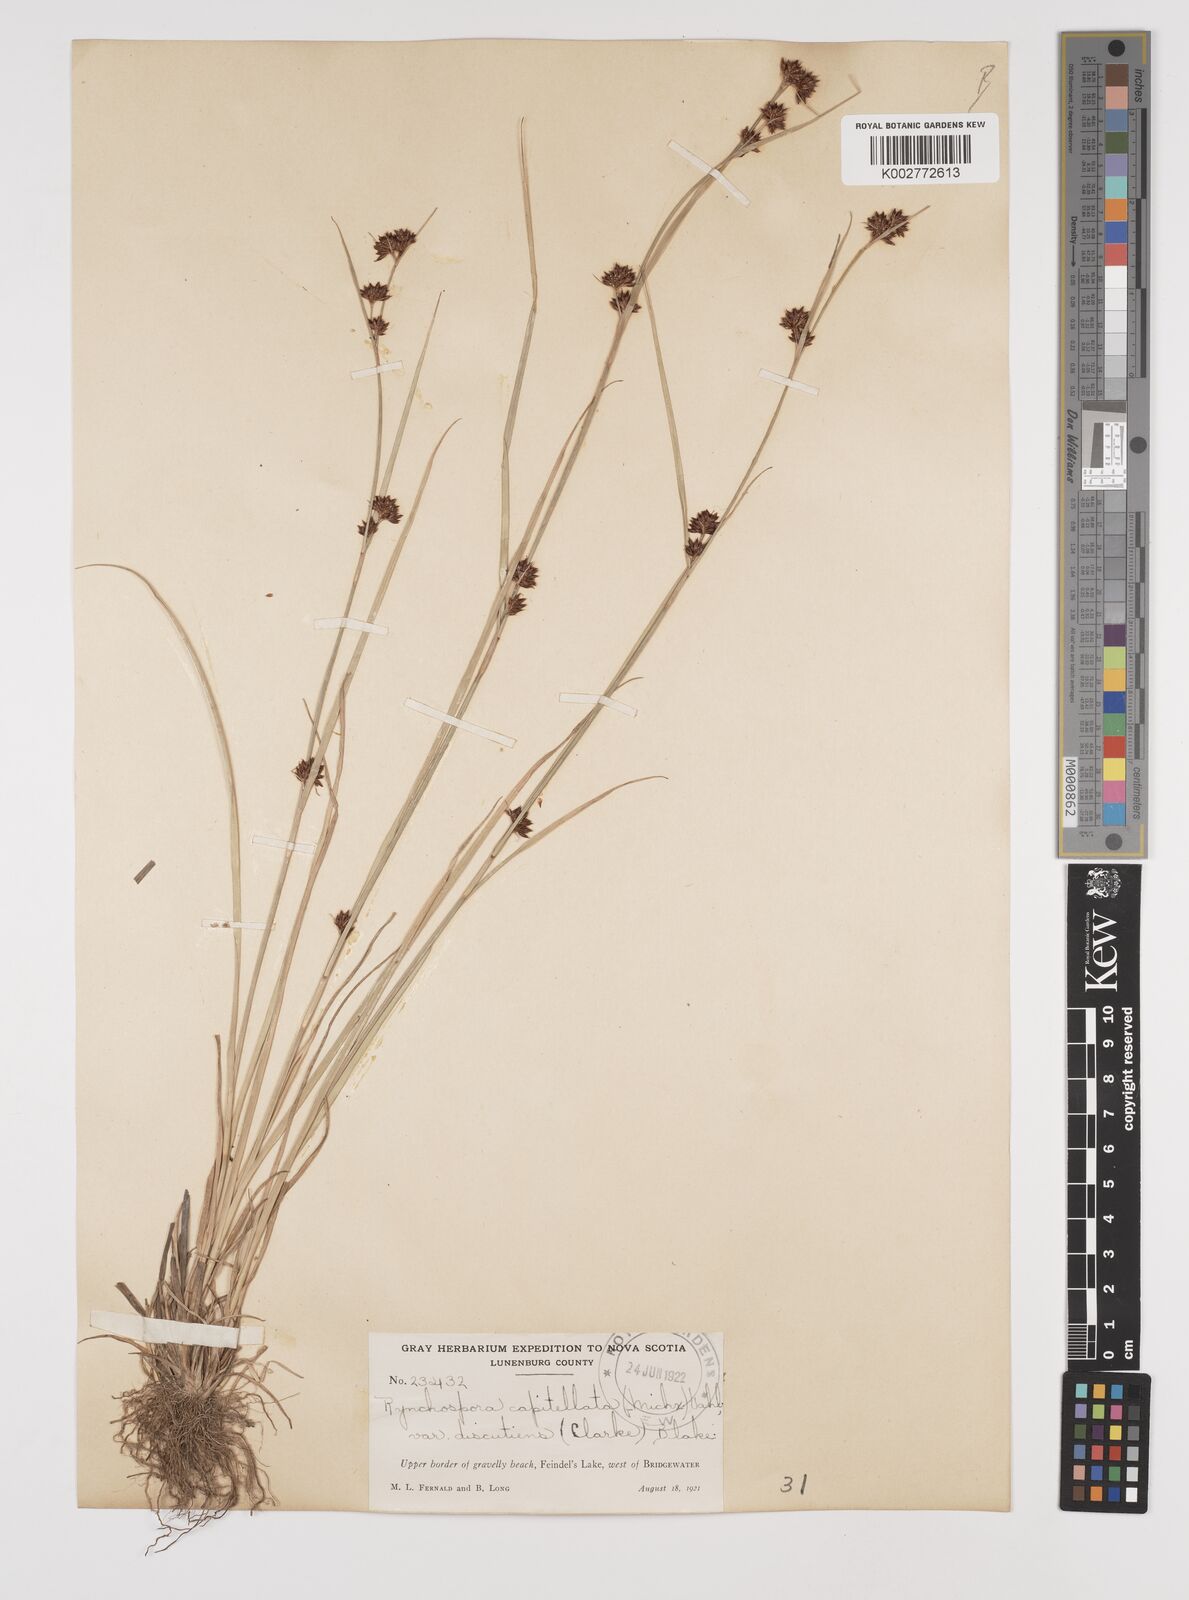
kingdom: Plantae
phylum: Tracheophyta
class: Liliopsida
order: Poales
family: Cyperaceae
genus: Rhynchospora
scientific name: Rhynchospora capitellata
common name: Brownish beaksedge
